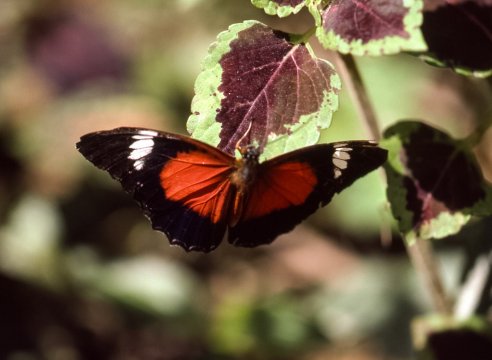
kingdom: Animalia
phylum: Arthropoda
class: Insecta
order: Lepidoptera
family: Nymphalidae
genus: Cethosia
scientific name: Cethosia cydippe
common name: Eastern Red Lacewing Butterfly
